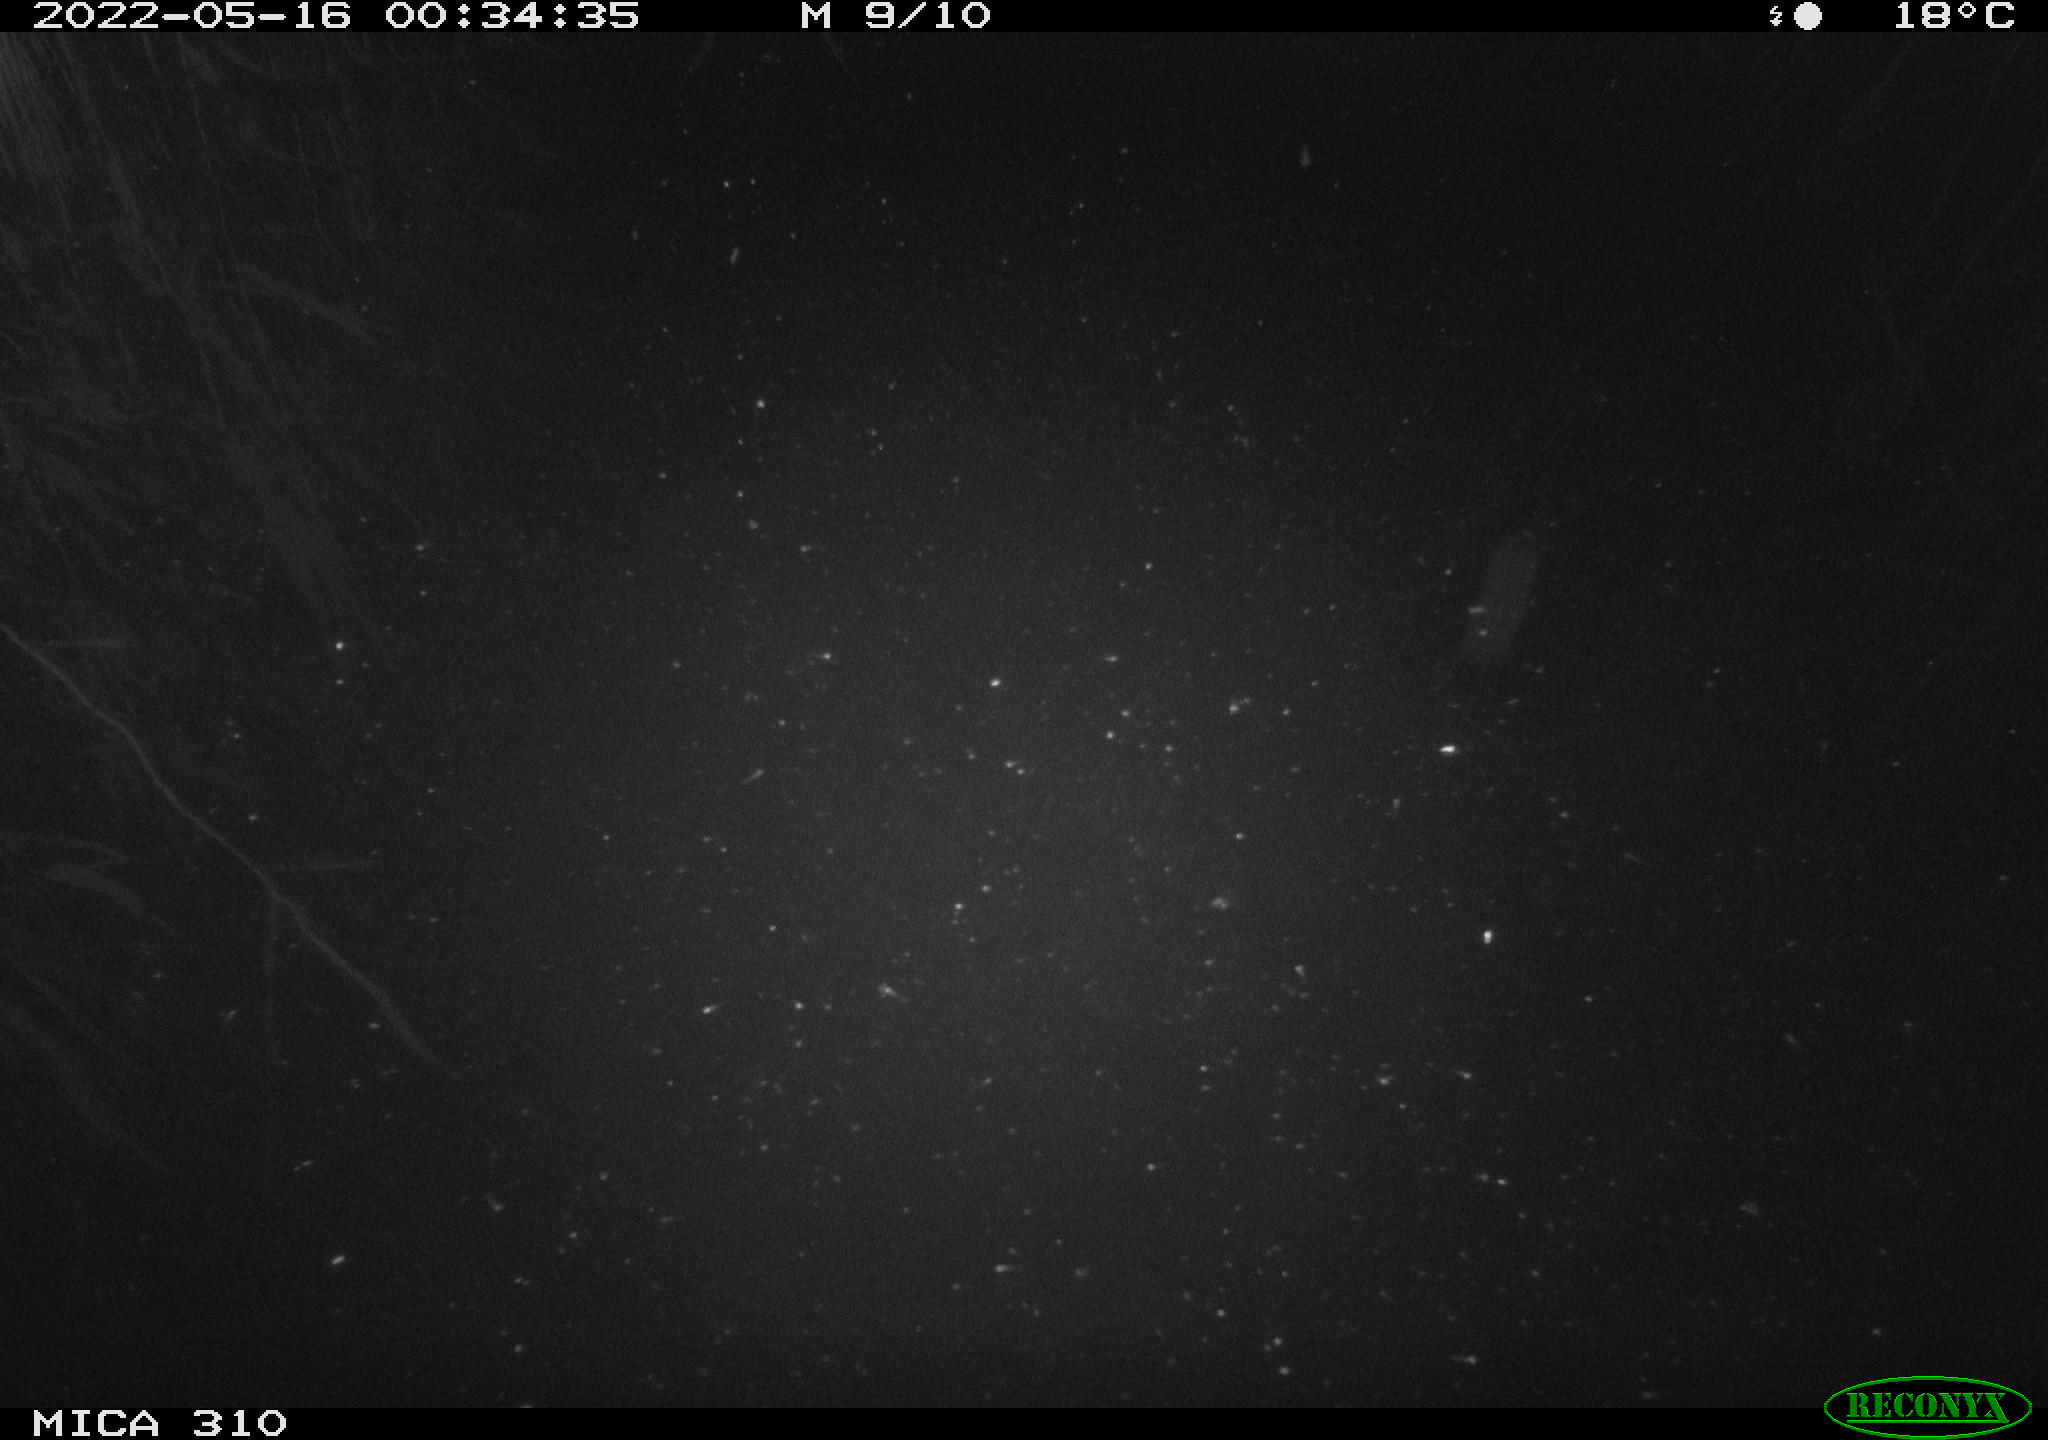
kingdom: Animalia
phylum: Chordata
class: Aves
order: Anseriformes
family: Anatidae
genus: Anas
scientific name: Anas platyrhynchos
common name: Mallard
